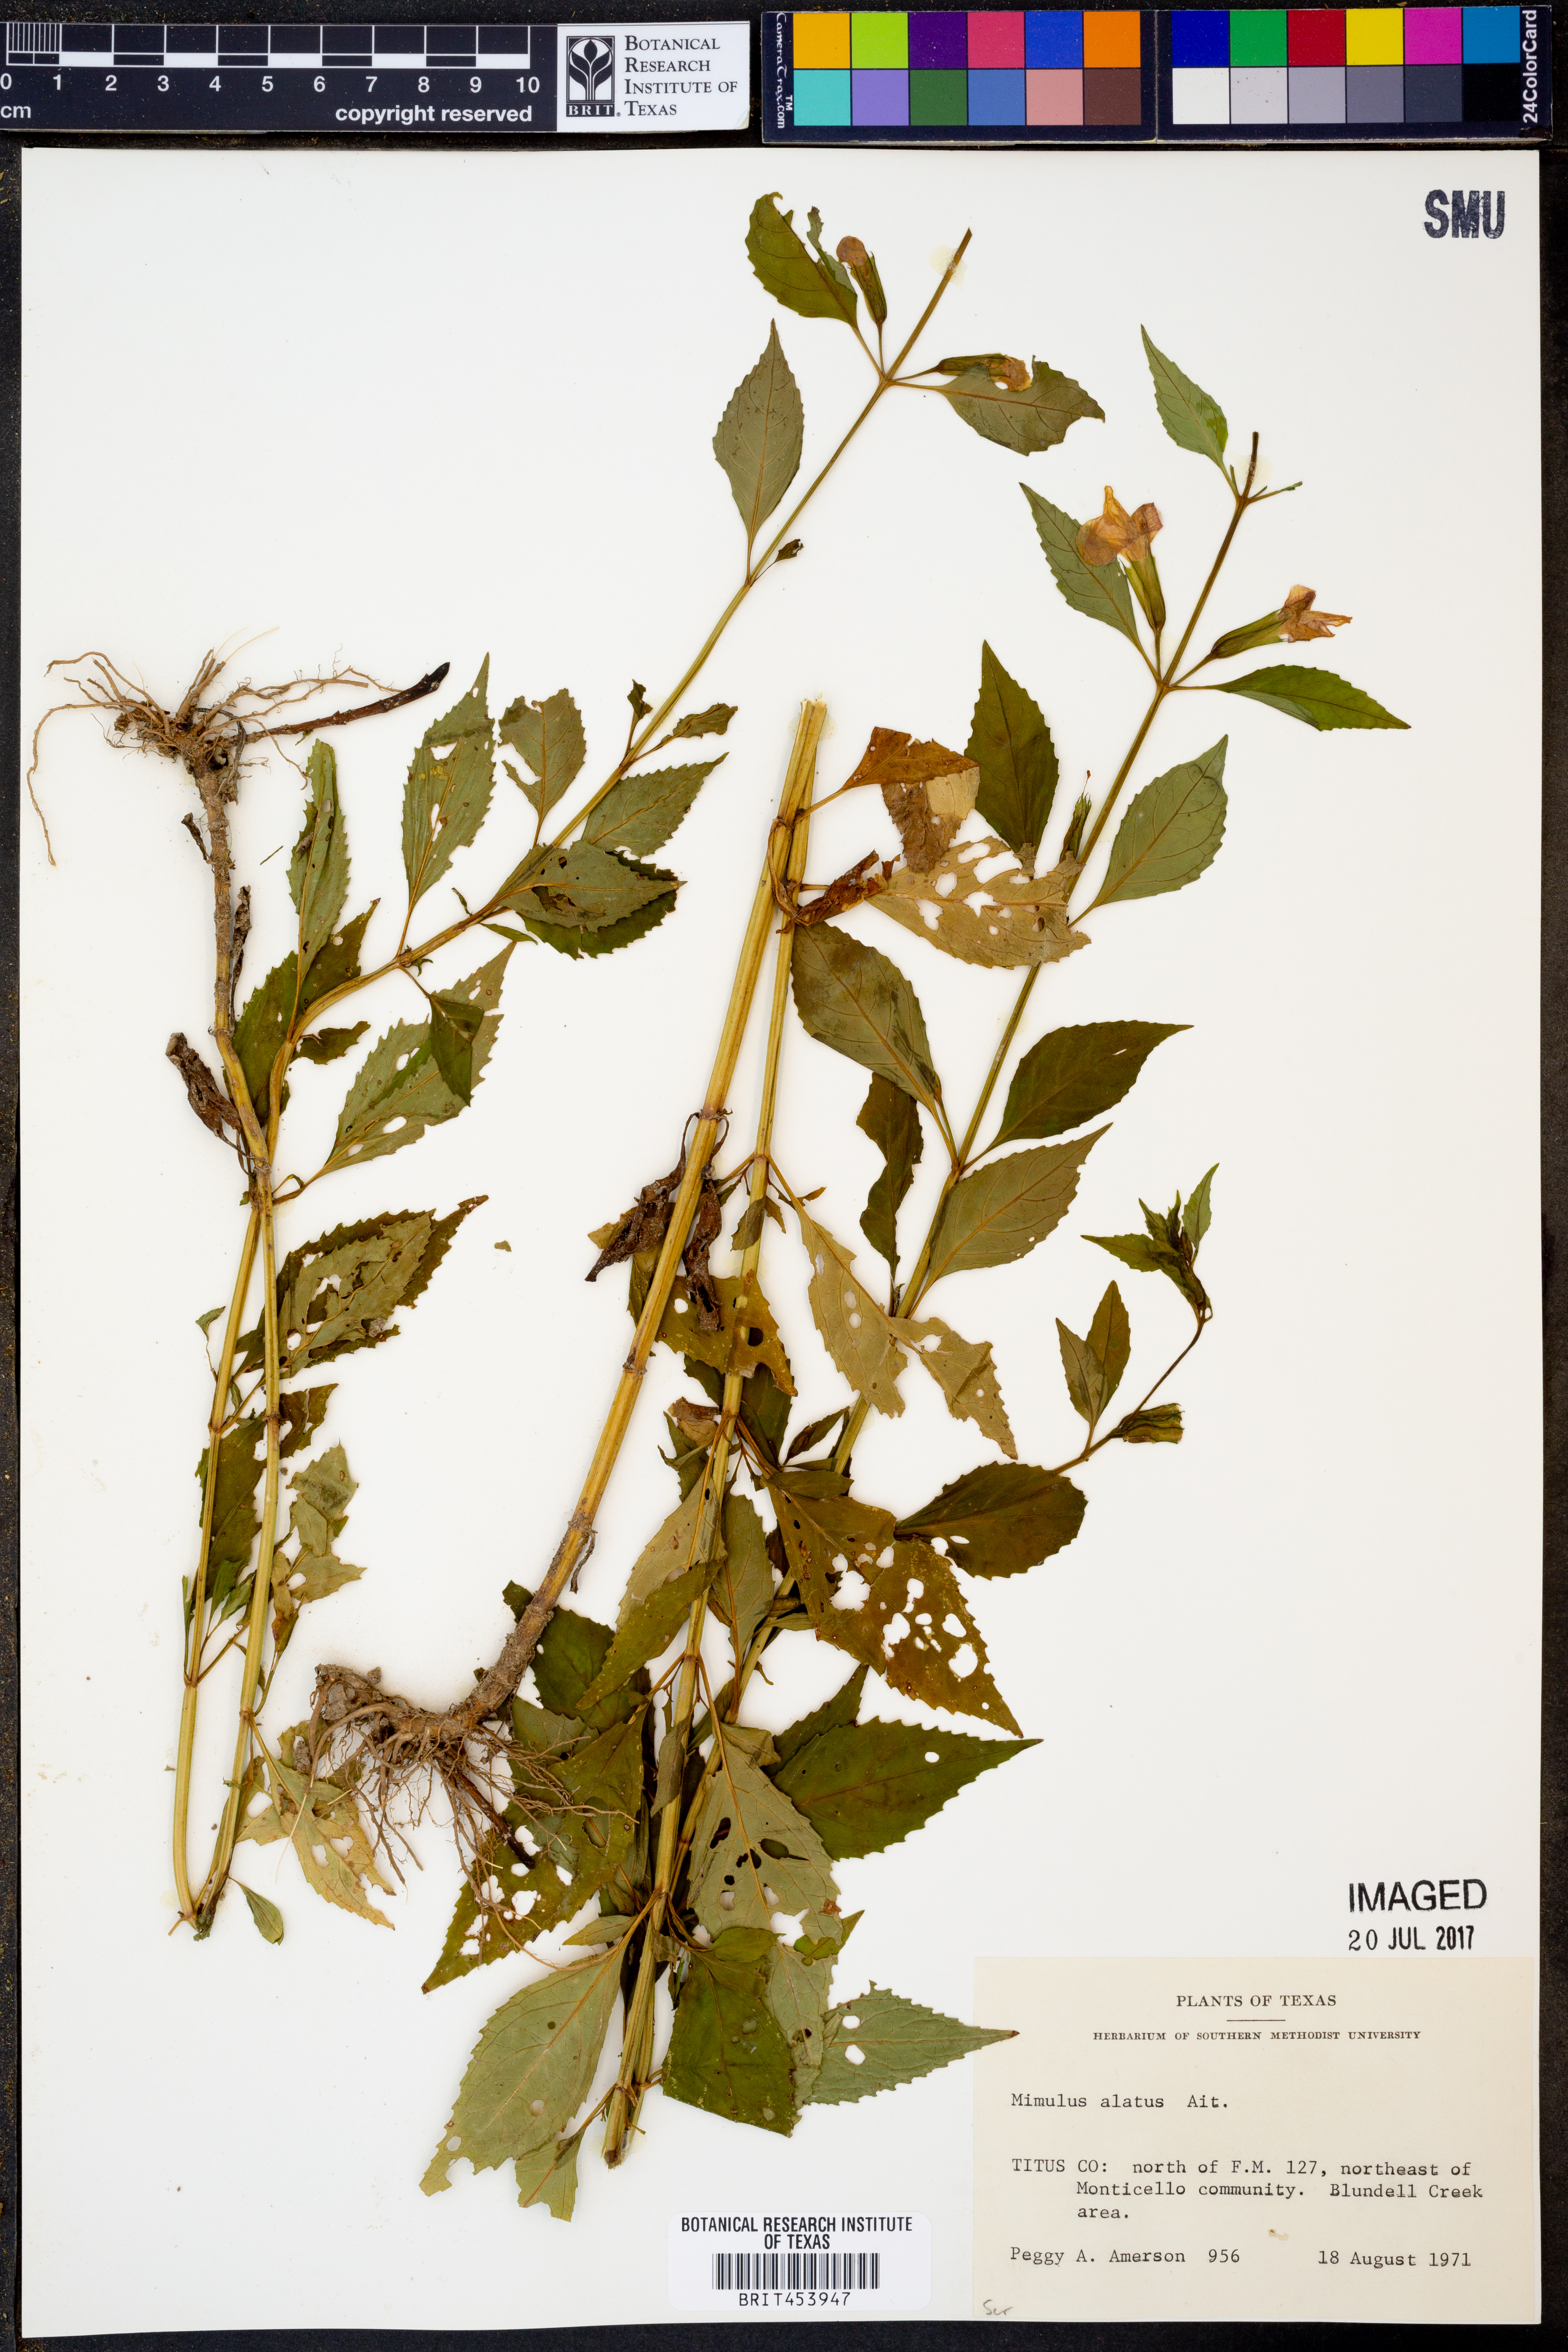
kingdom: Plantae
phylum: Tracheophyta
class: Magnoliopsida
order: Lamiales
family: Phrymaceae
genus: Mimulus
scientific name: Mimulus alatus
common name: Sharp-wing monkey-flower
